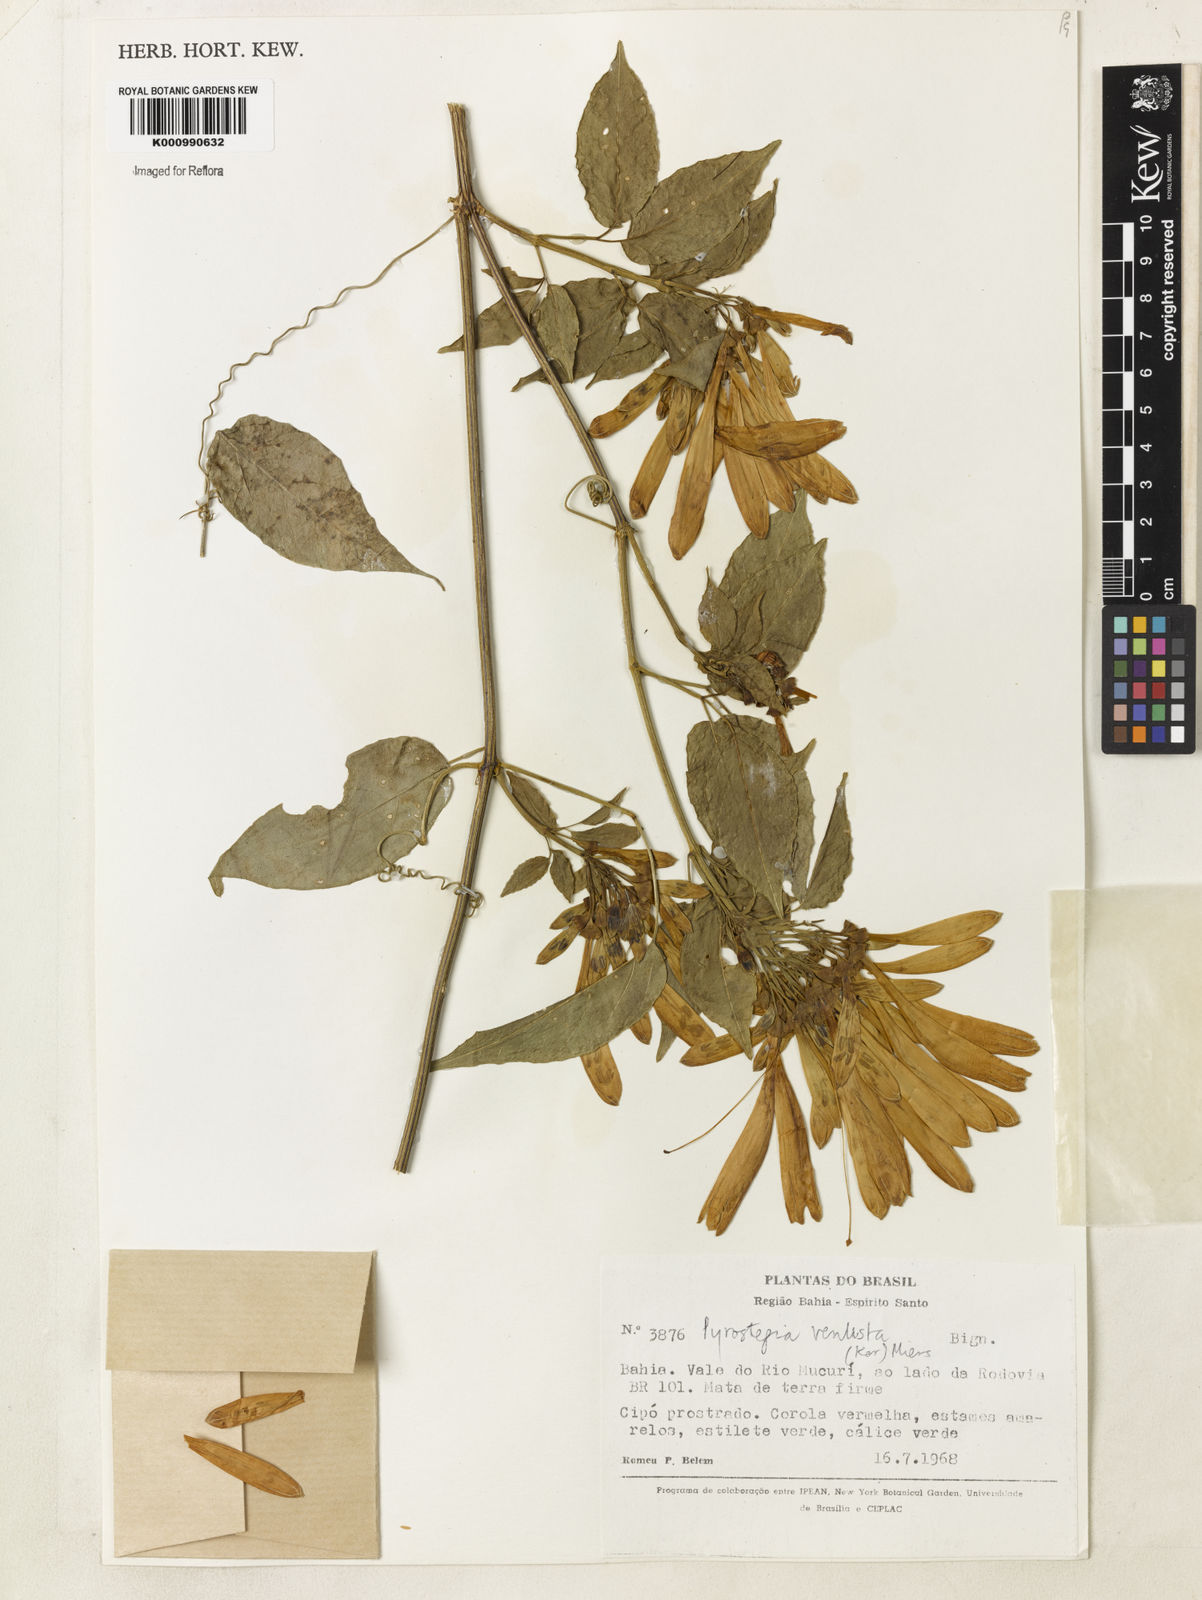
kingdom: Plantae
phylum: Tracheophyta
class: Magnoliopsida
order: Lamiales
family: Bignoniaceae
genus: Pyrostegia
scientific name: Pyrostegia venusta
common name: Flamevine
